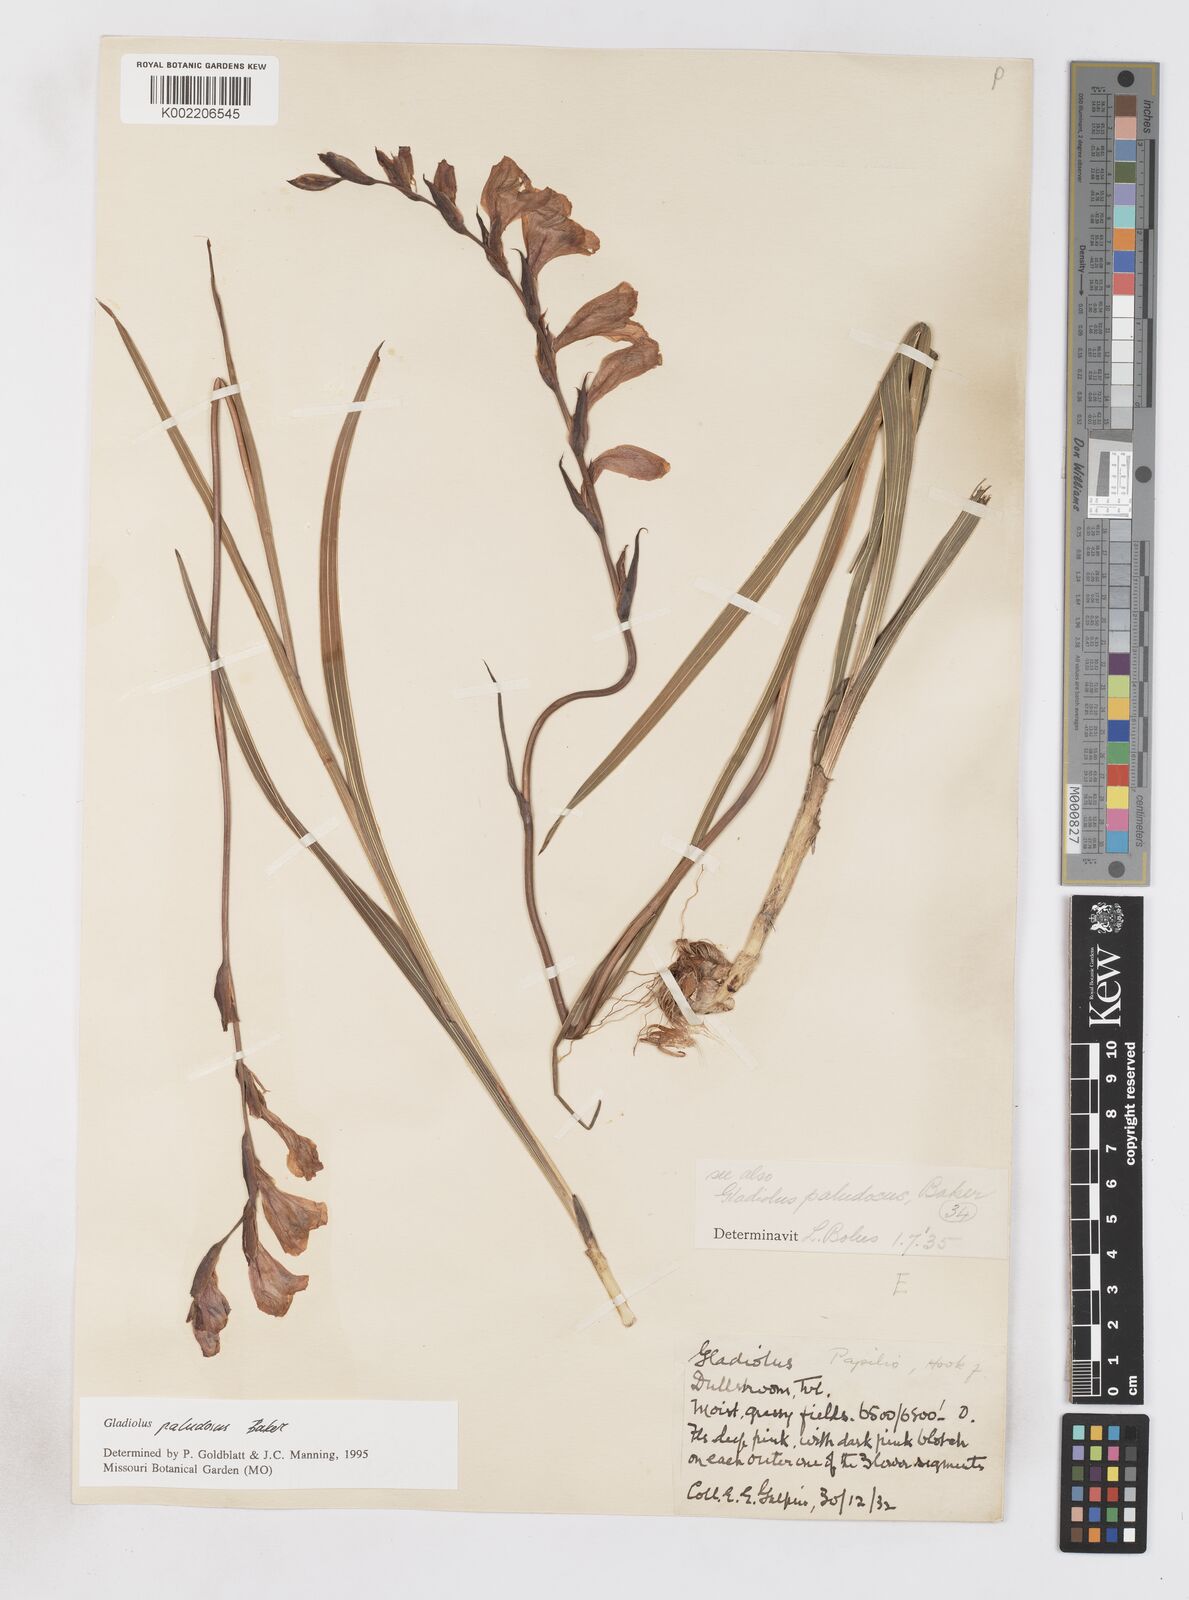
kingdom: Plantae
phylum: Tracheophyta
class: Liliopsida
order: Asparagales
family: Iridaceae
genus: Gladiolus
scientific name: Gladiolus paludosus
